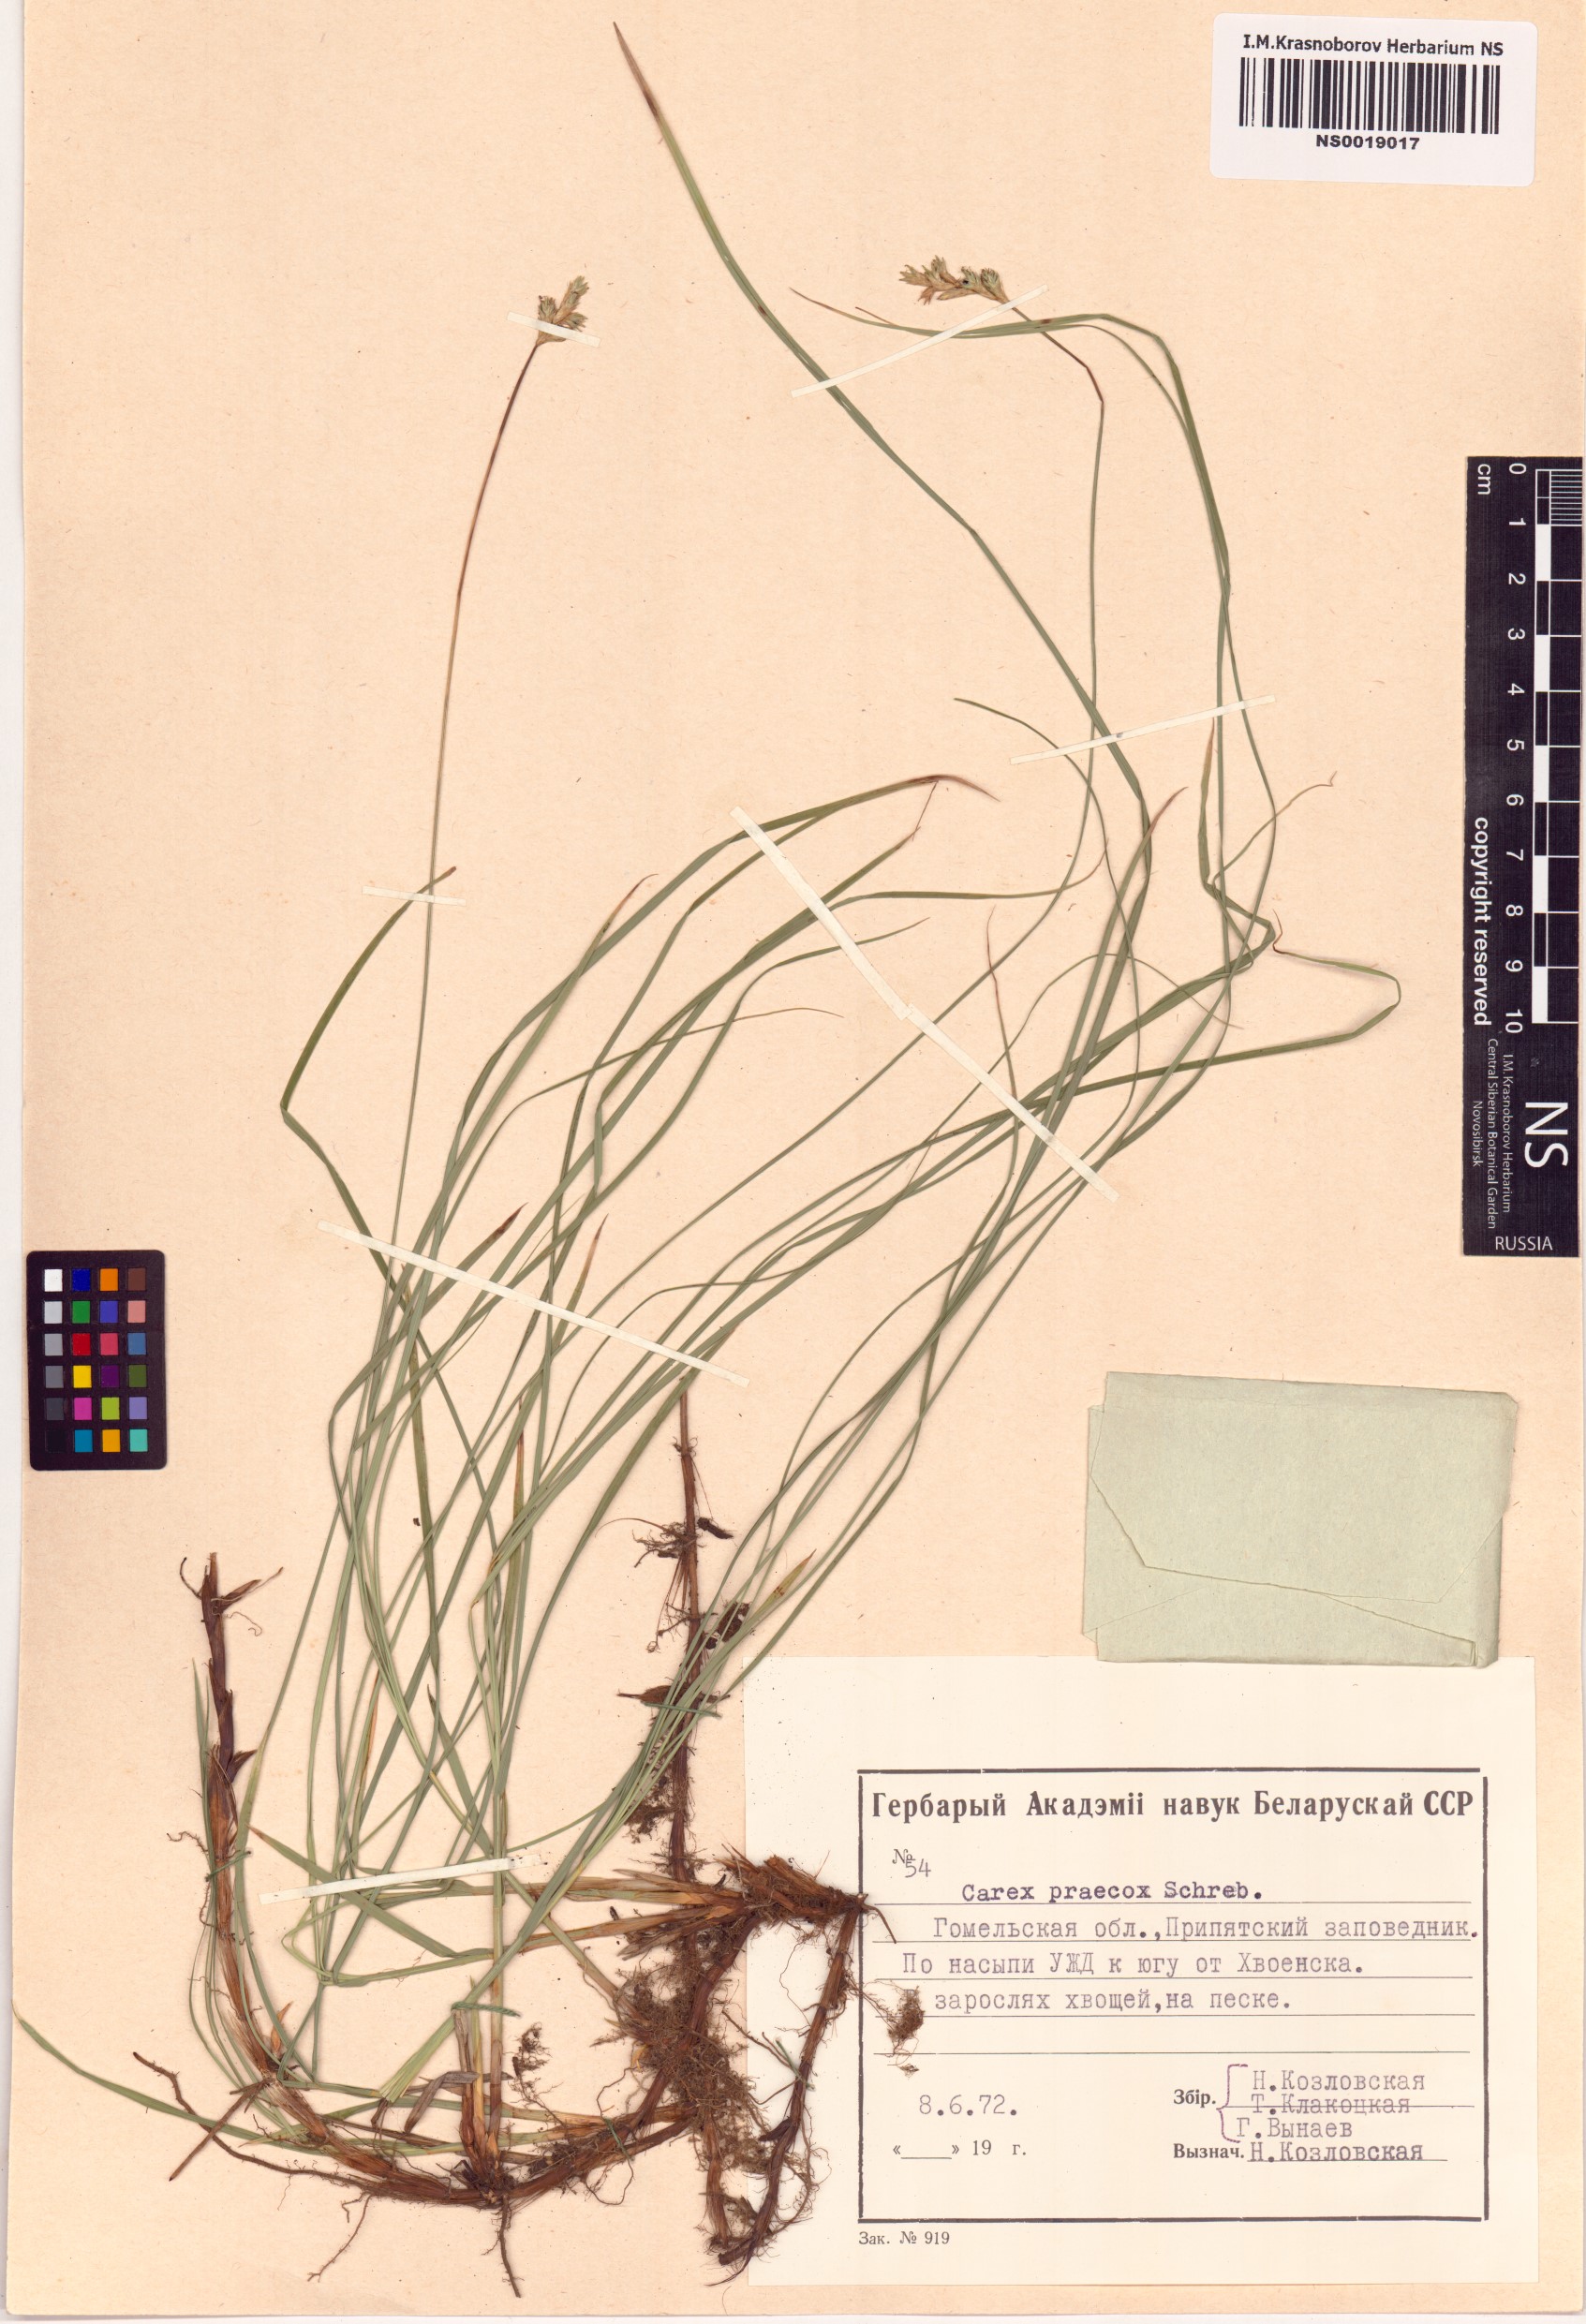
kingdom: Plantae
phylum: Tracheophyta
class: Liliopsida
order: Poales
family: Cyperaceae
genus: Carex
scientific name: Carex praecox
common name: Early sedge
